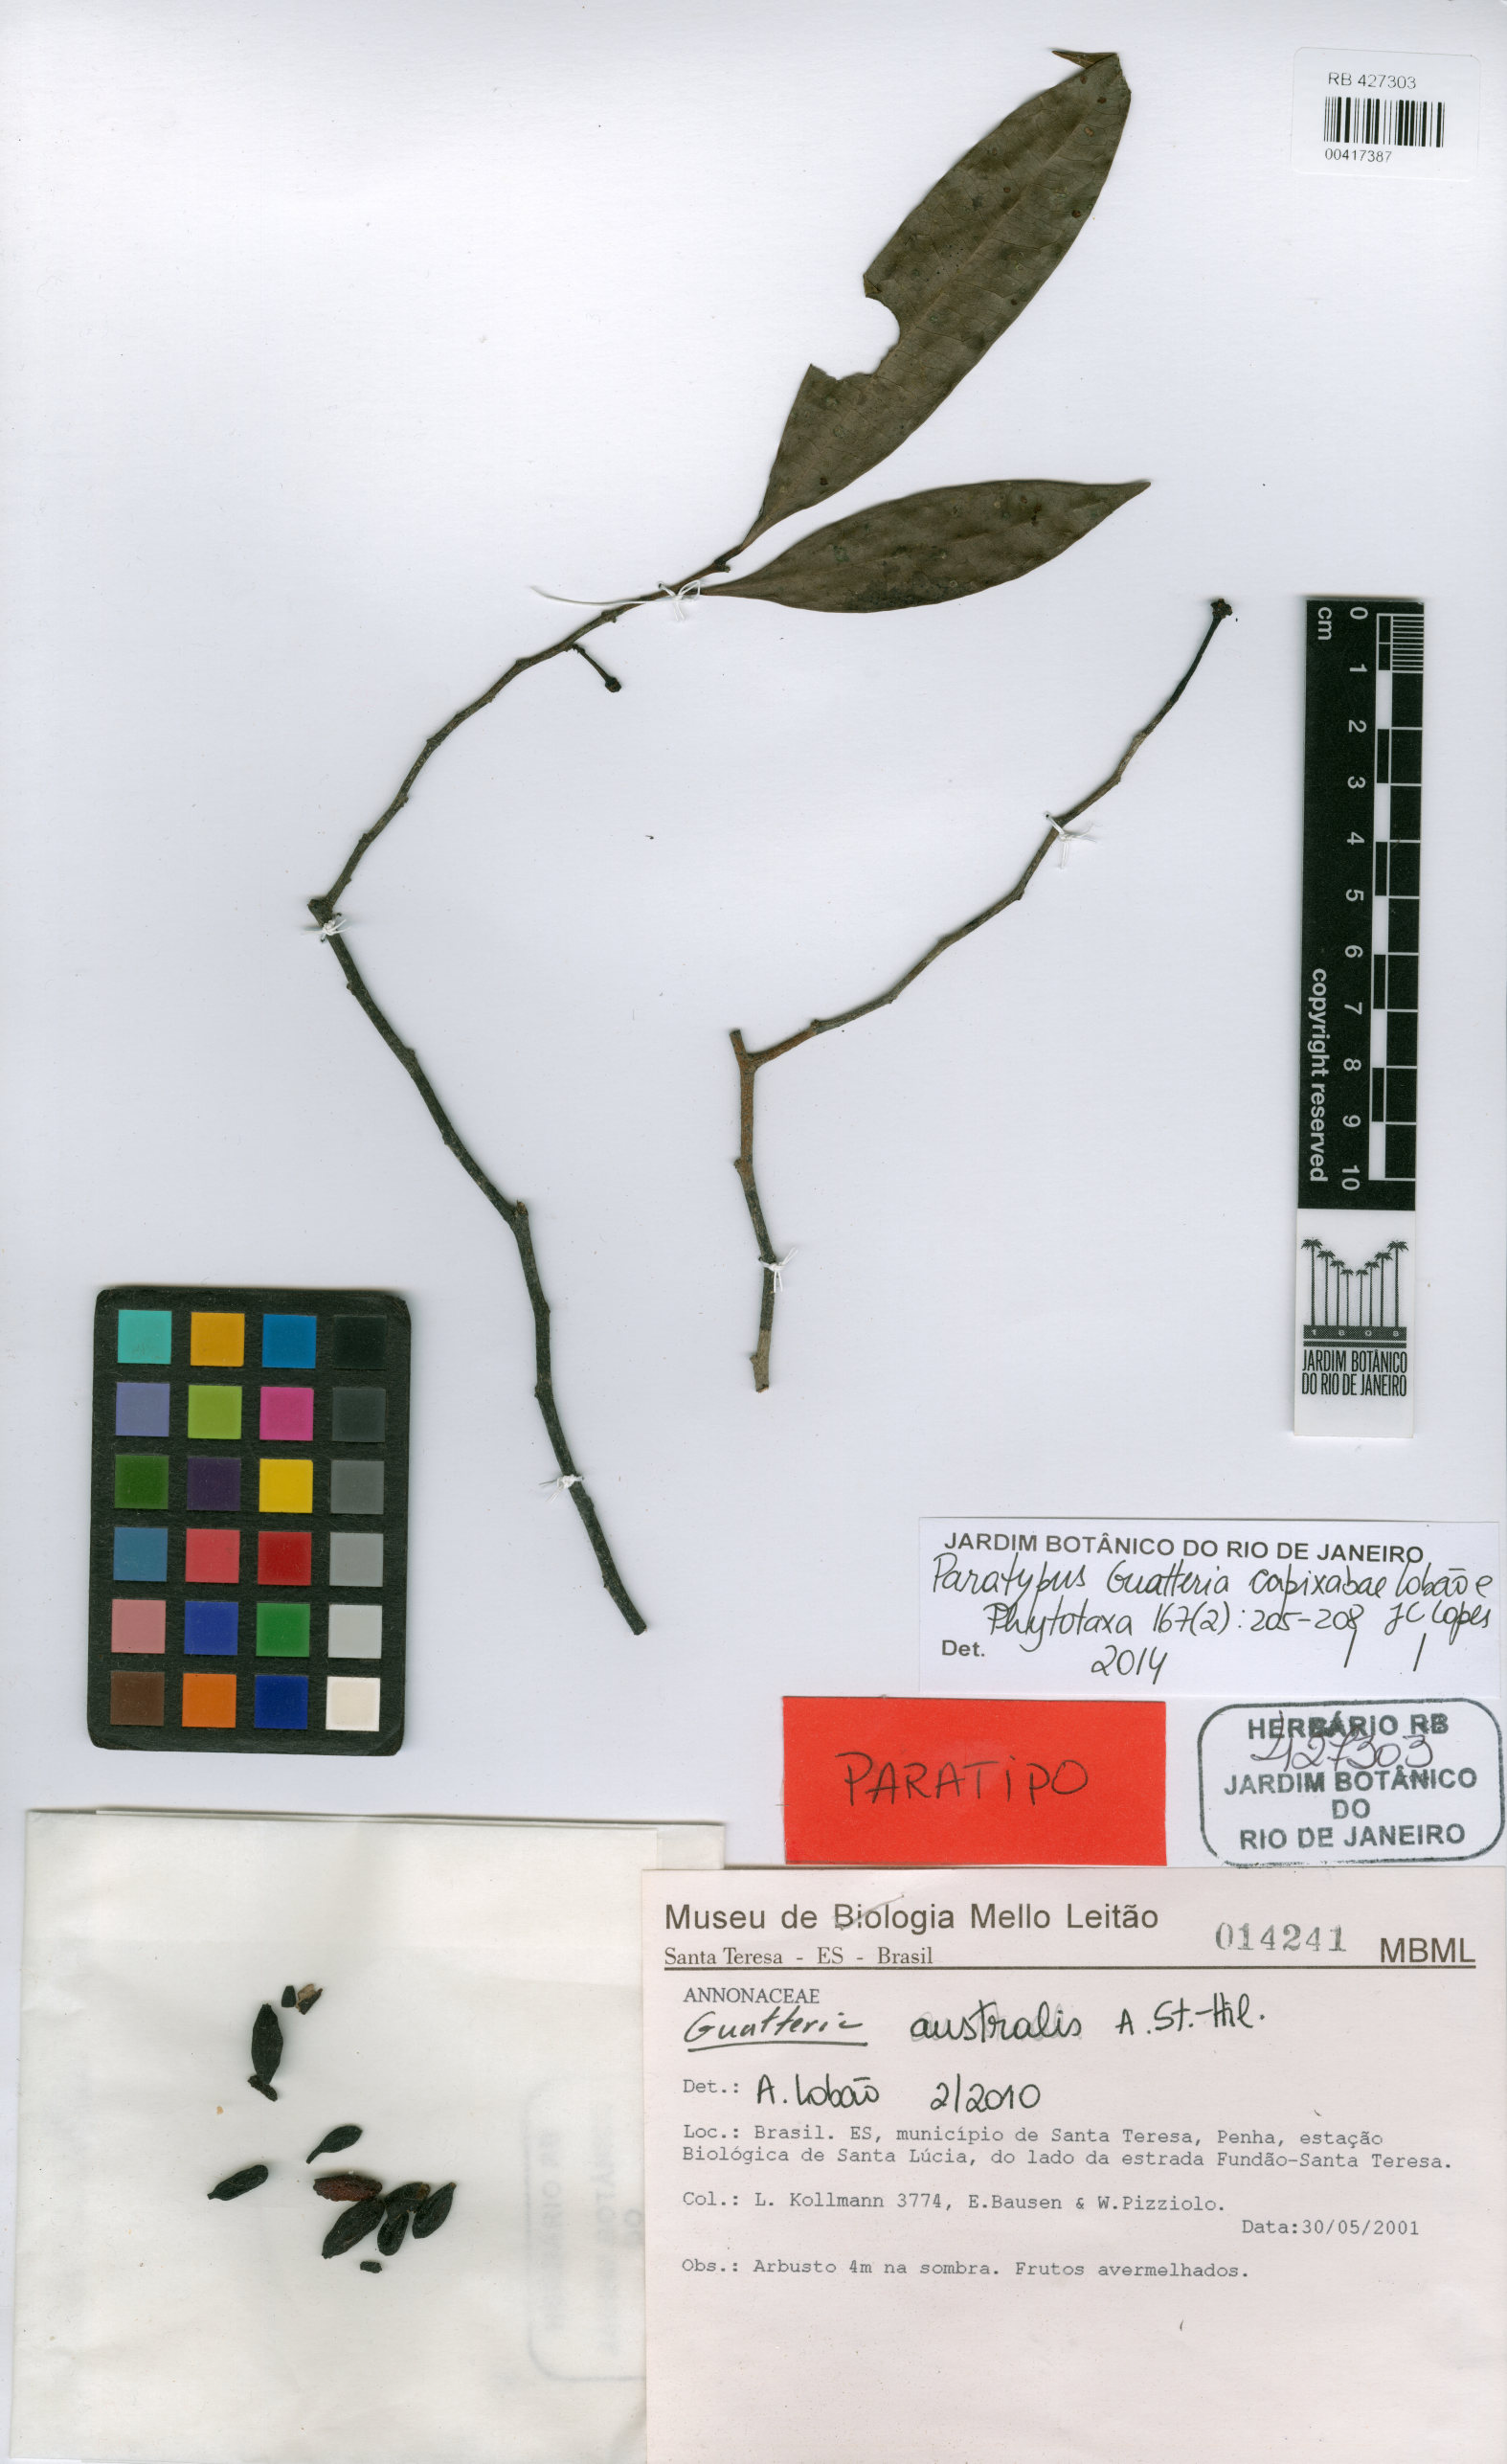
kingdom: Plantae
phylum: Tracheophyta
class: Magnoliopsida
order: Magnoliales
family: Annonaceae
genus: Guatteria
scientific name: Guatteria capixabae
